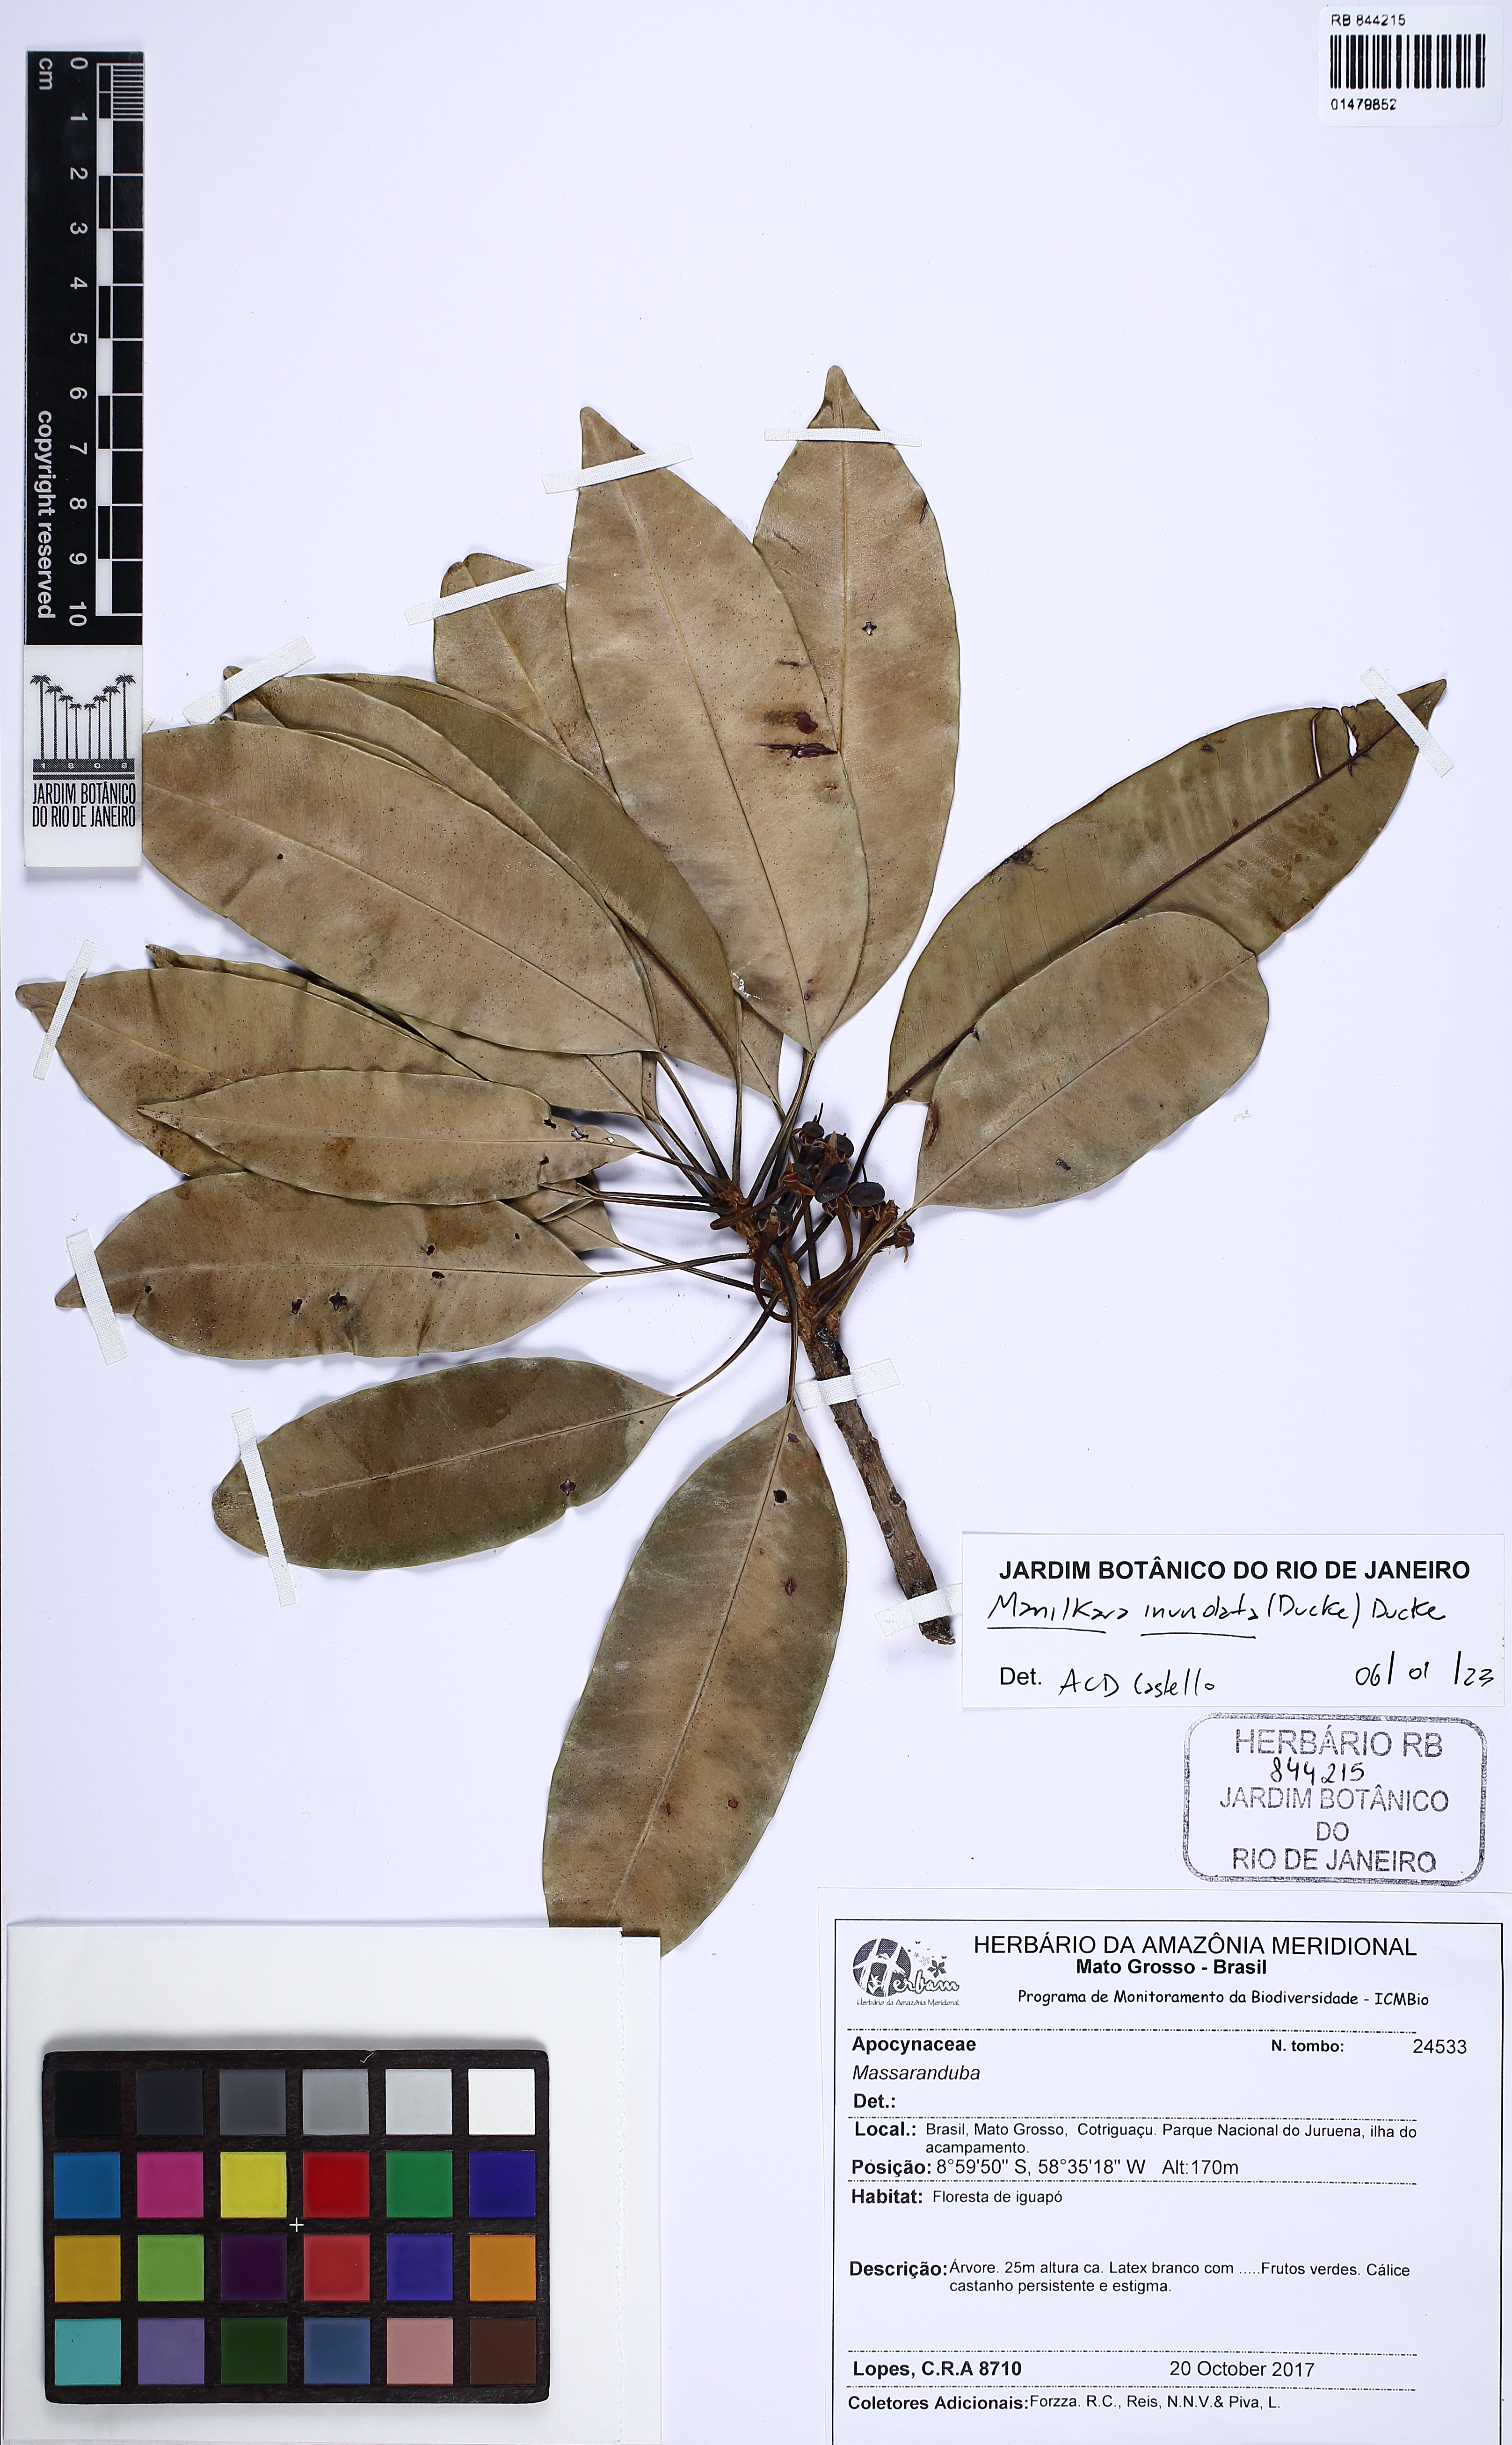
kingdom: Plantae
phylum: Tracheophyta
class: Magnoliopsida
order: Ericales
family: Sapotaceae
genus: Manilkara
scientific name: Manilkara inundata
